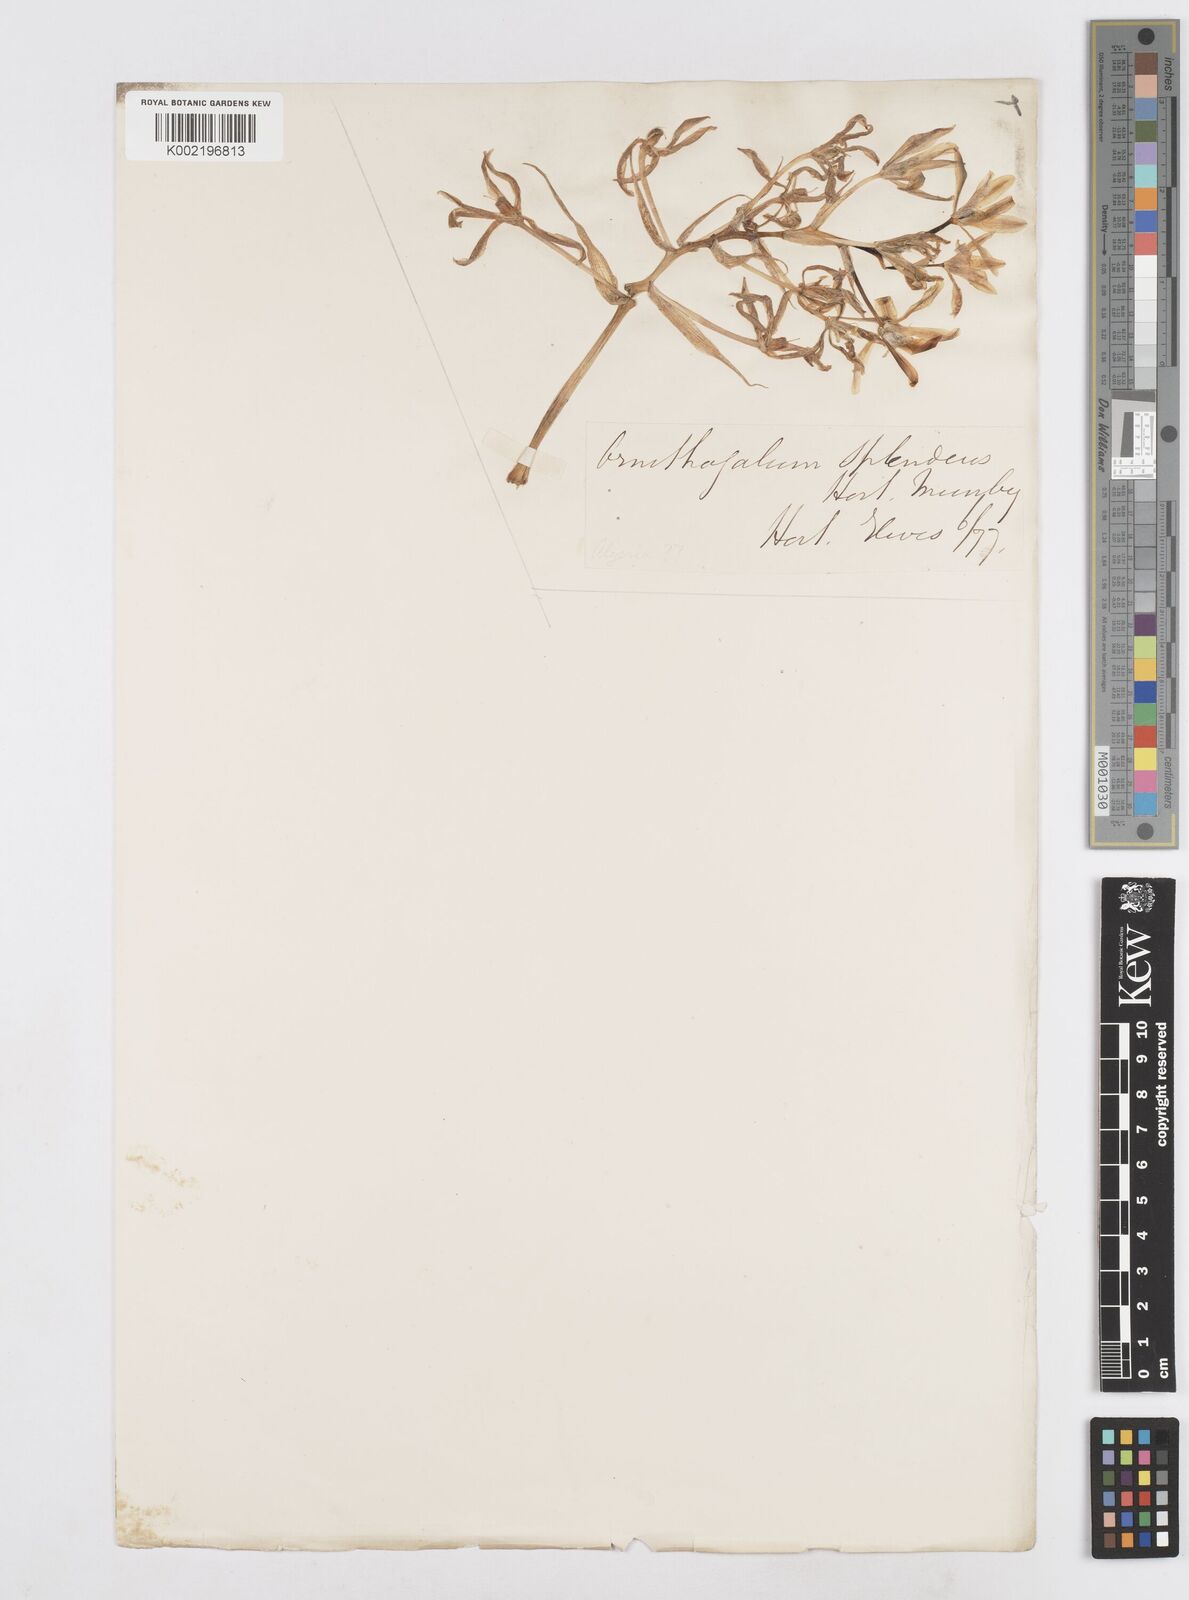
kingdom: Plantae
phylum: Tracheophyta
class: Liliopsida
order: Asparagales
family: Asparagaceae
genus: Ornithogalum
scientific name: Ornithogalum maculatum
